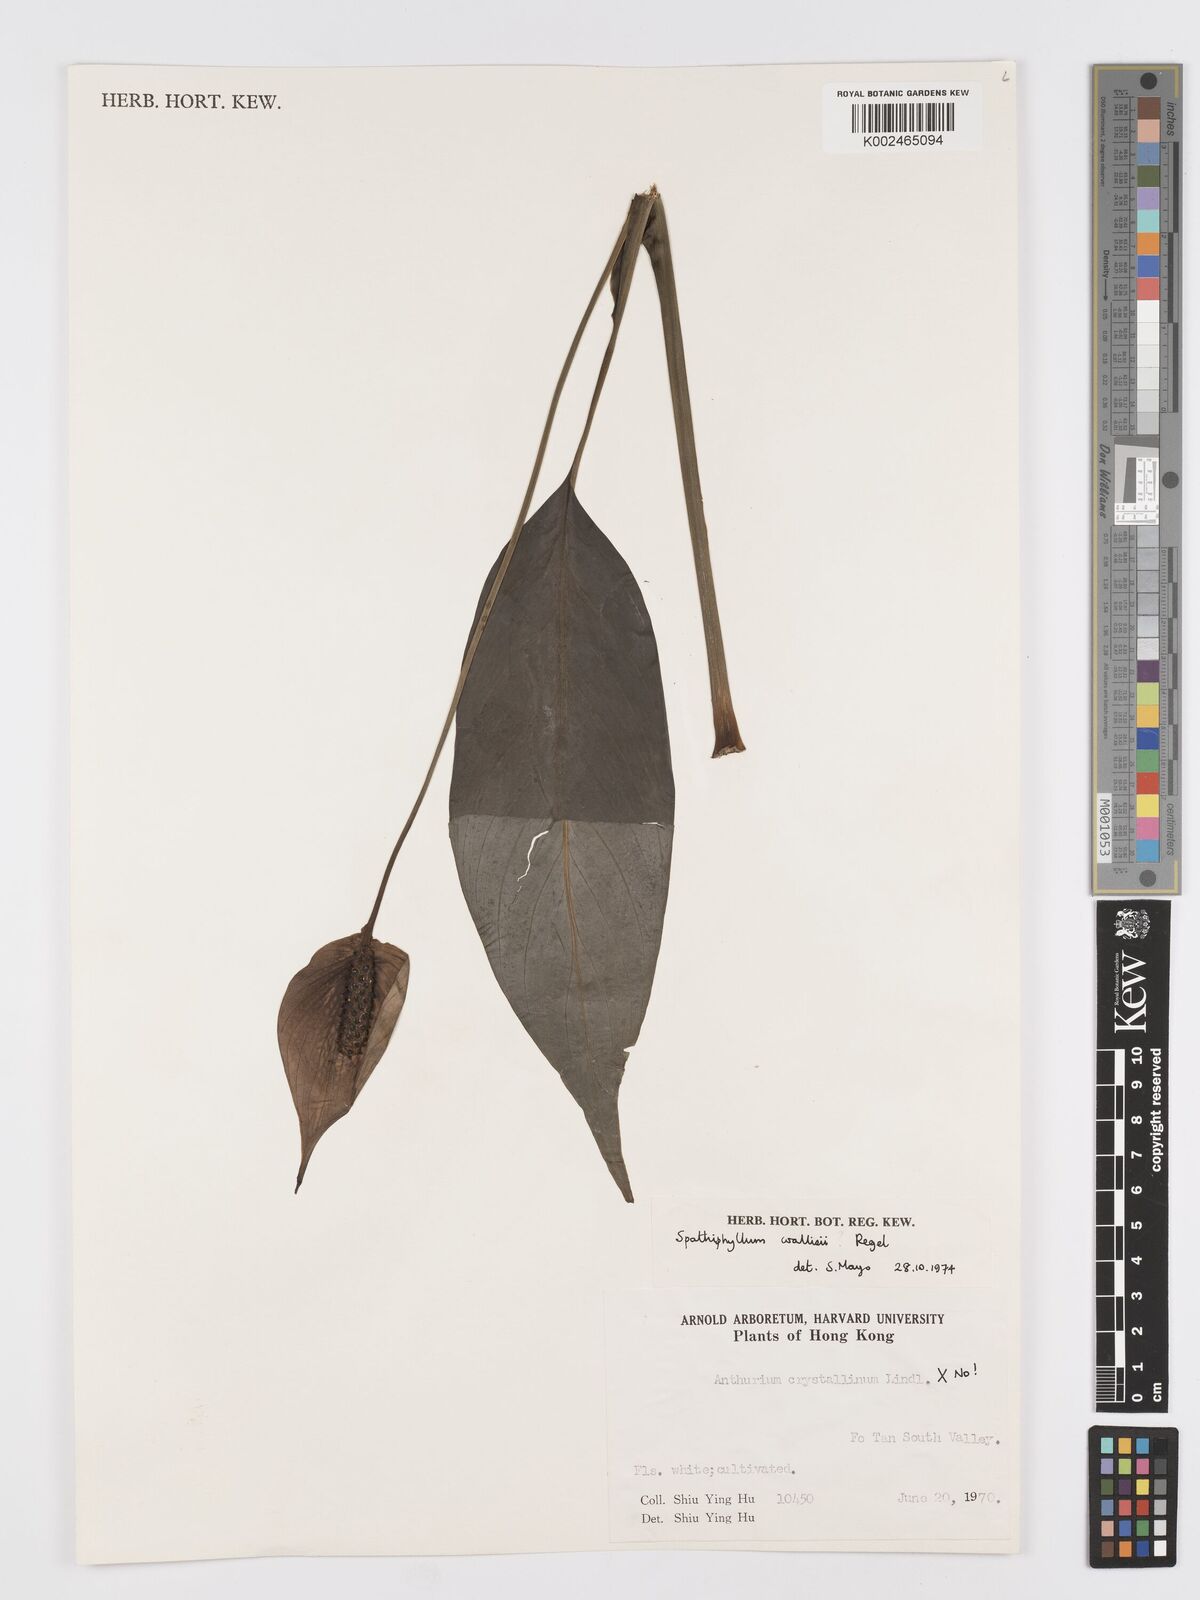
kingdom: Plantae
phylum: Tracheophyta
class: Liliopsida
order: Alismatales
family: Araceae
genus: Spathiphyllum
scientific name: Spathiphyllum wallisii
